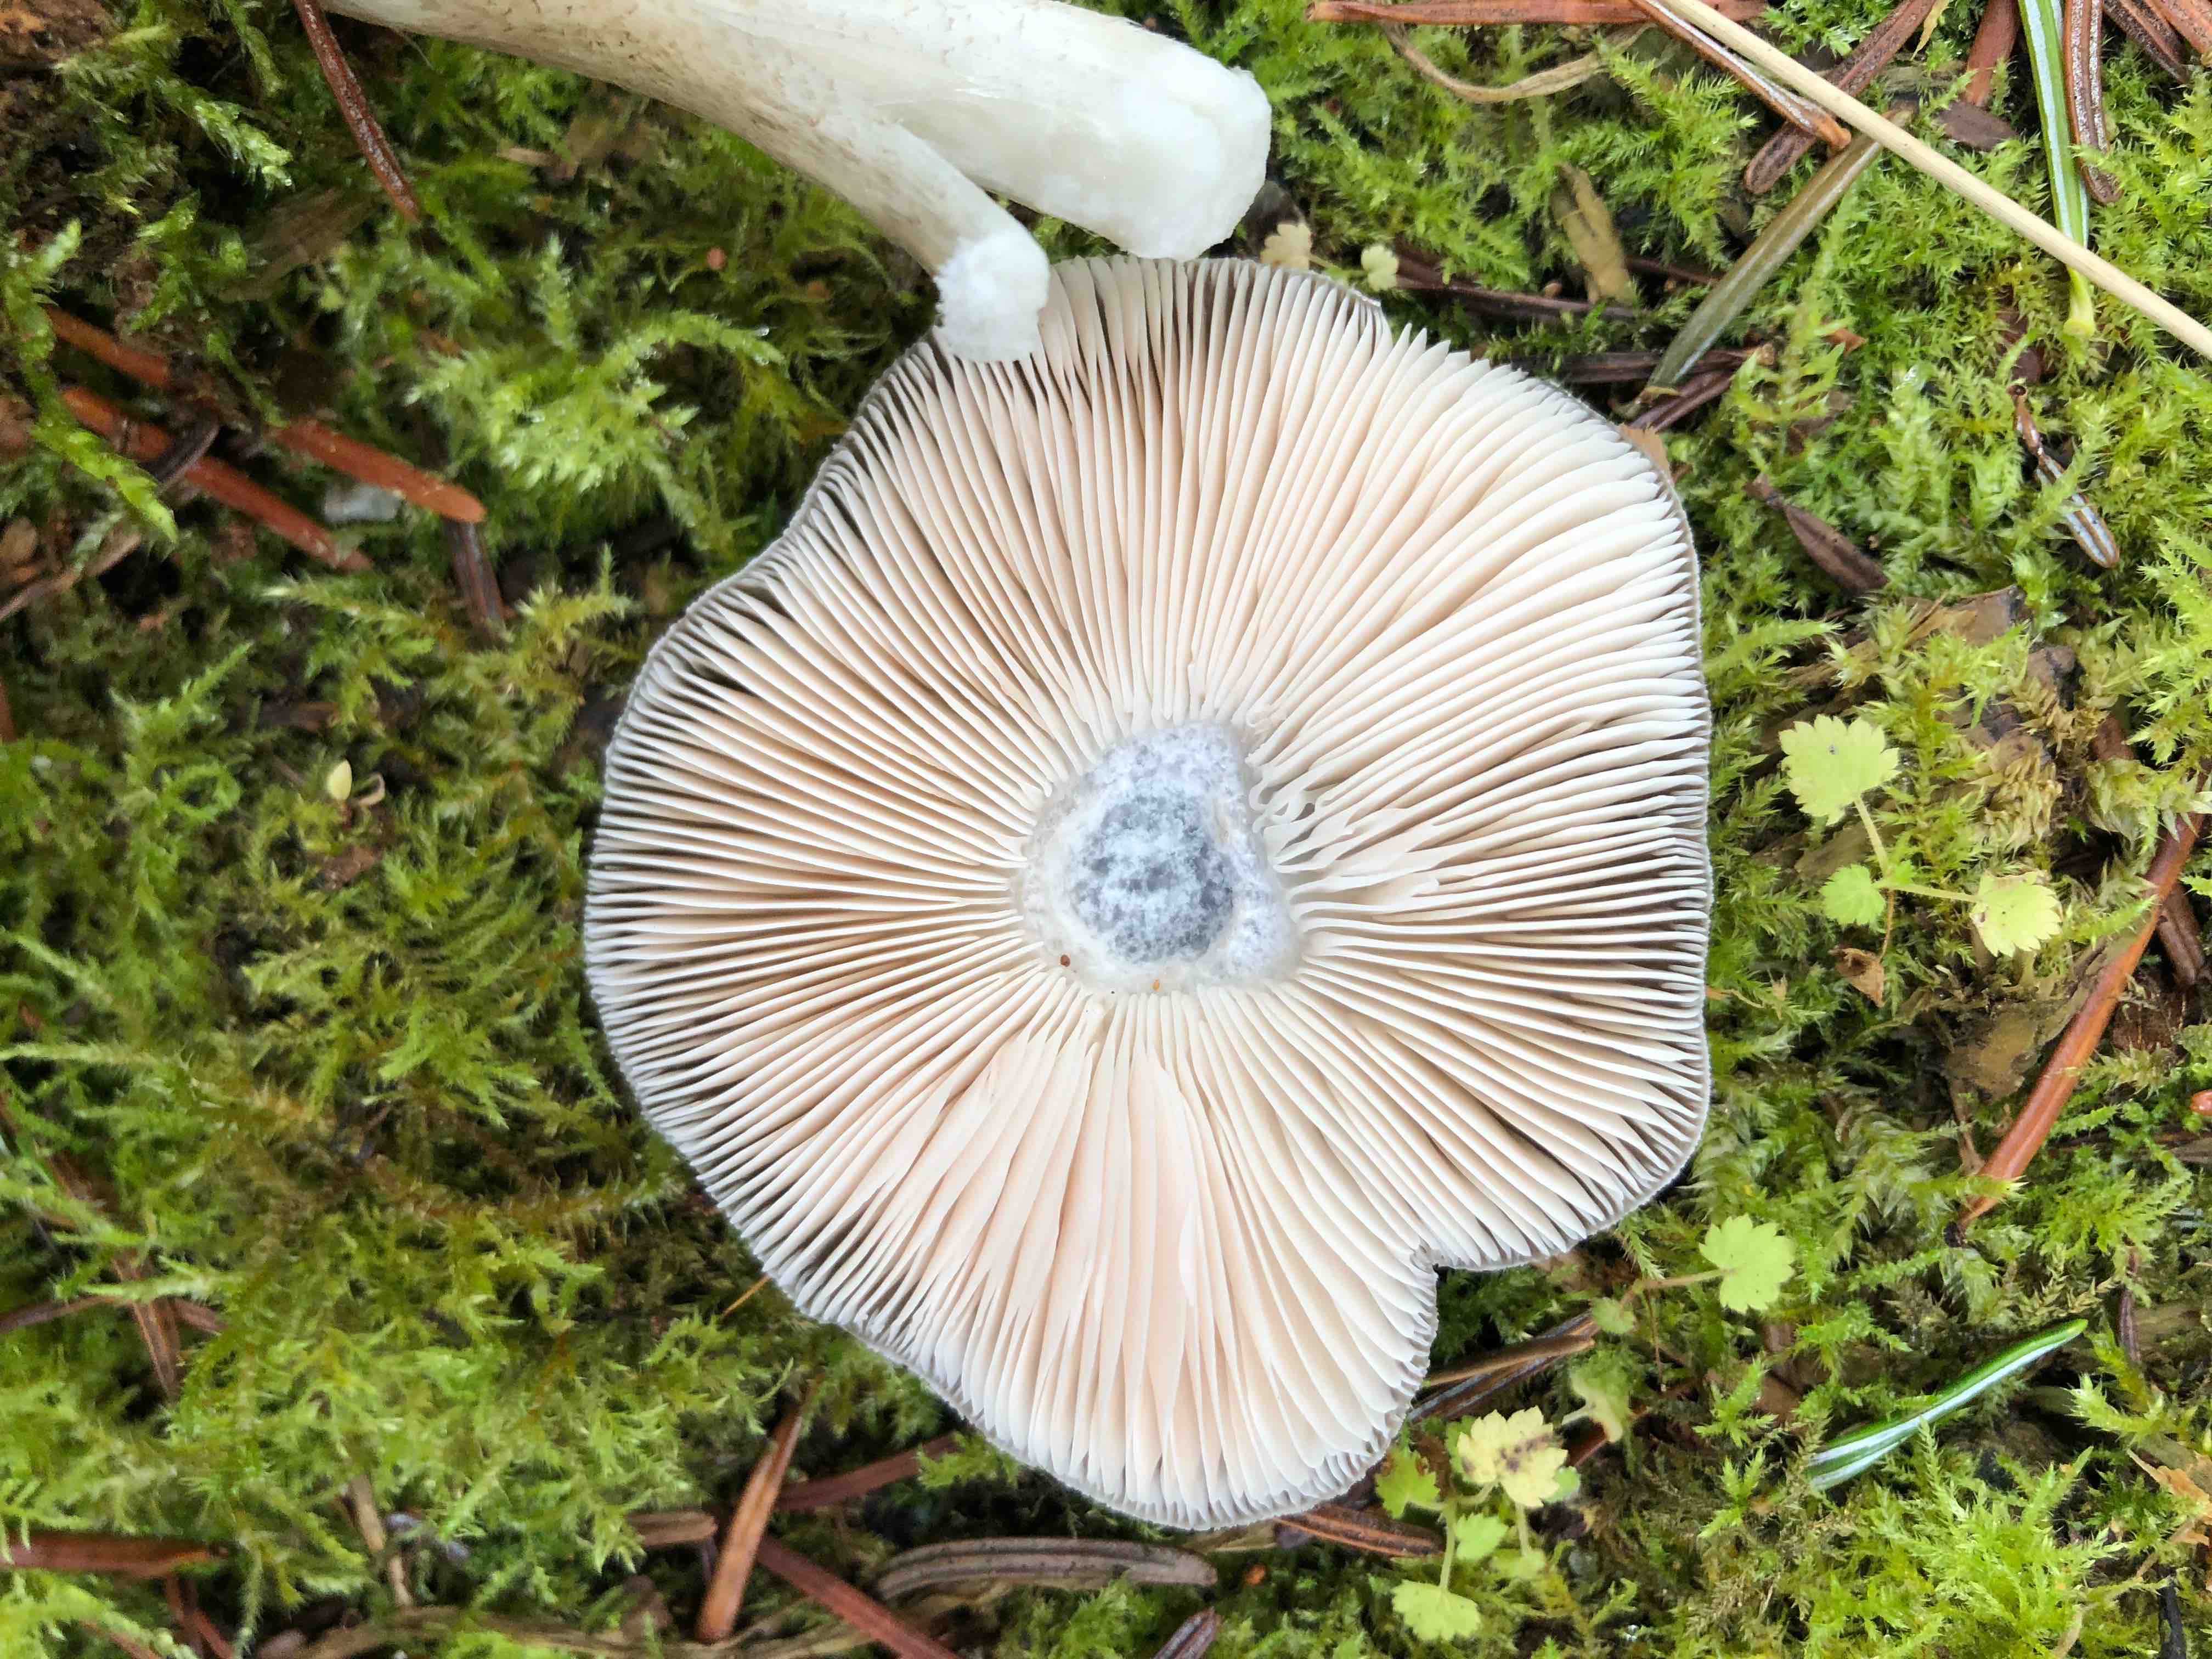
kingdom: Fungi
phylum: Basidiomycota
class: Agaricomycetes
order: Agaricales
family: Pluteaceae
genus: Pluteus
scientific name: Pluteus
